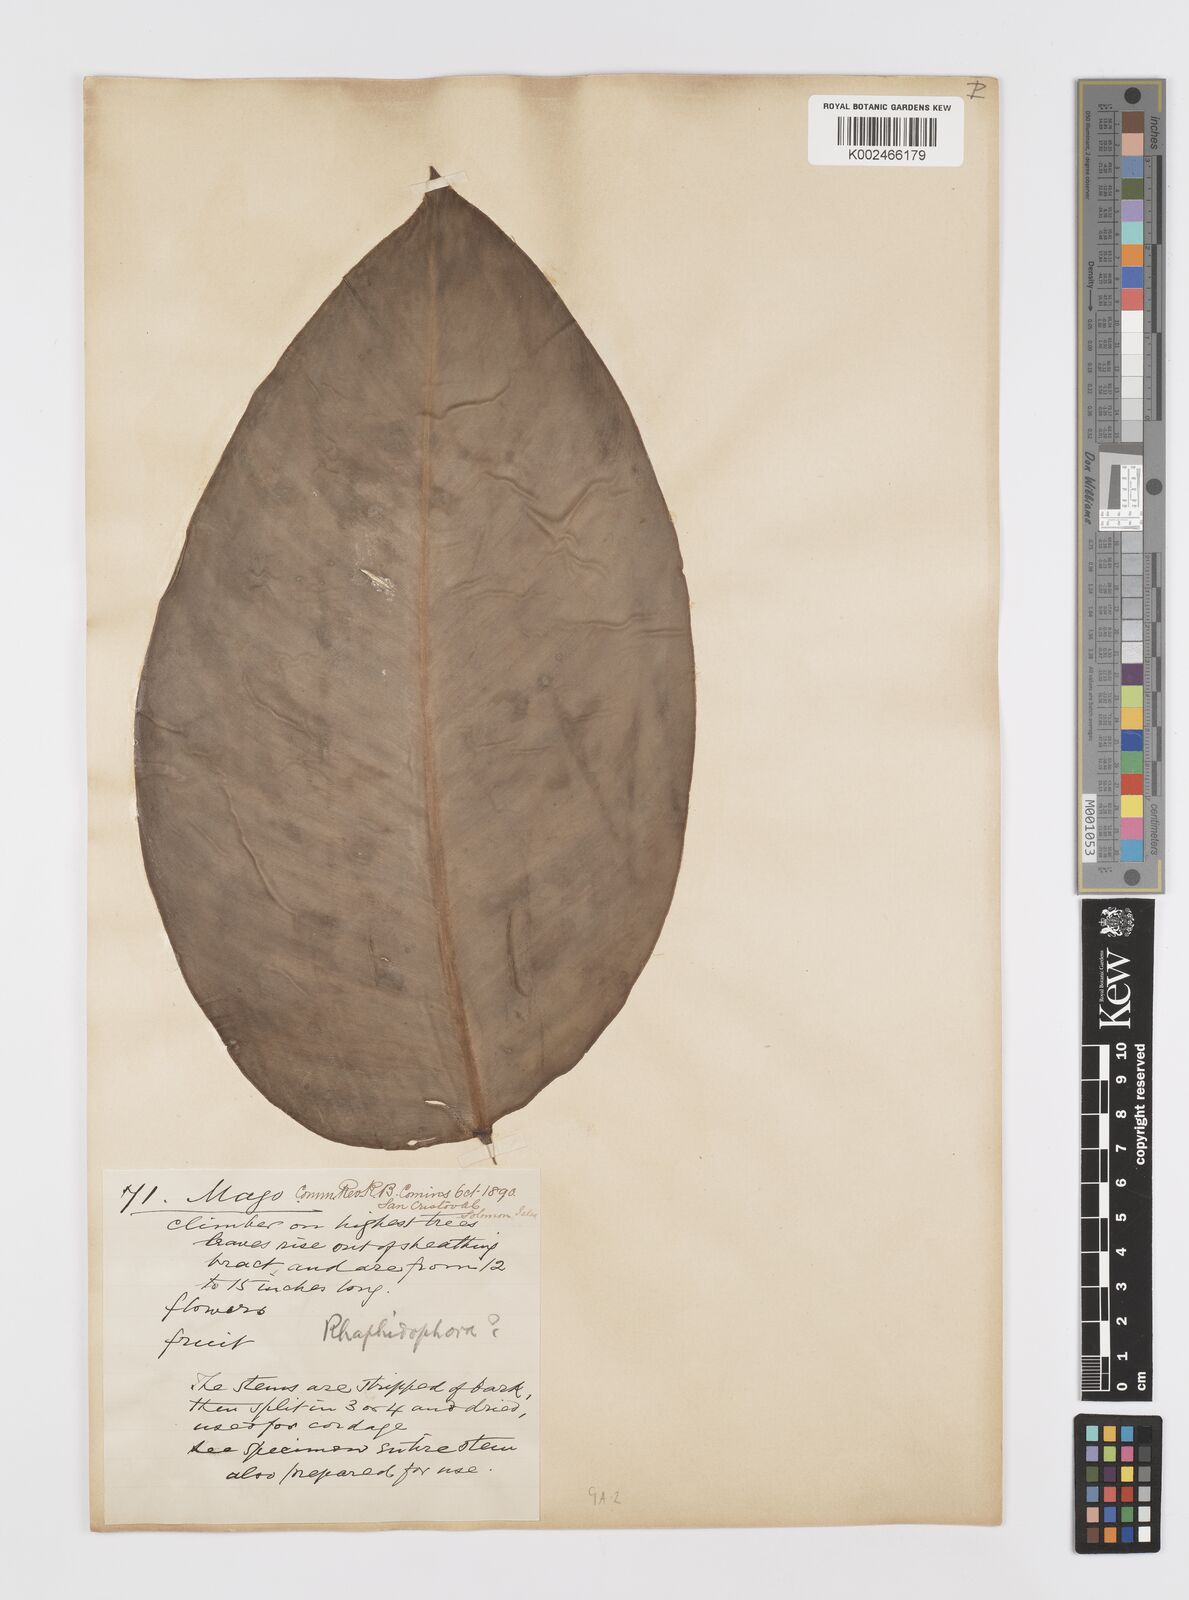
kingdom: Plantae
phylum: Tracheophyta
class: Liliopsida
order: Alismatales
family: Araceae
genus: Rhaphidophora
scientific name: Rhaphidophora
